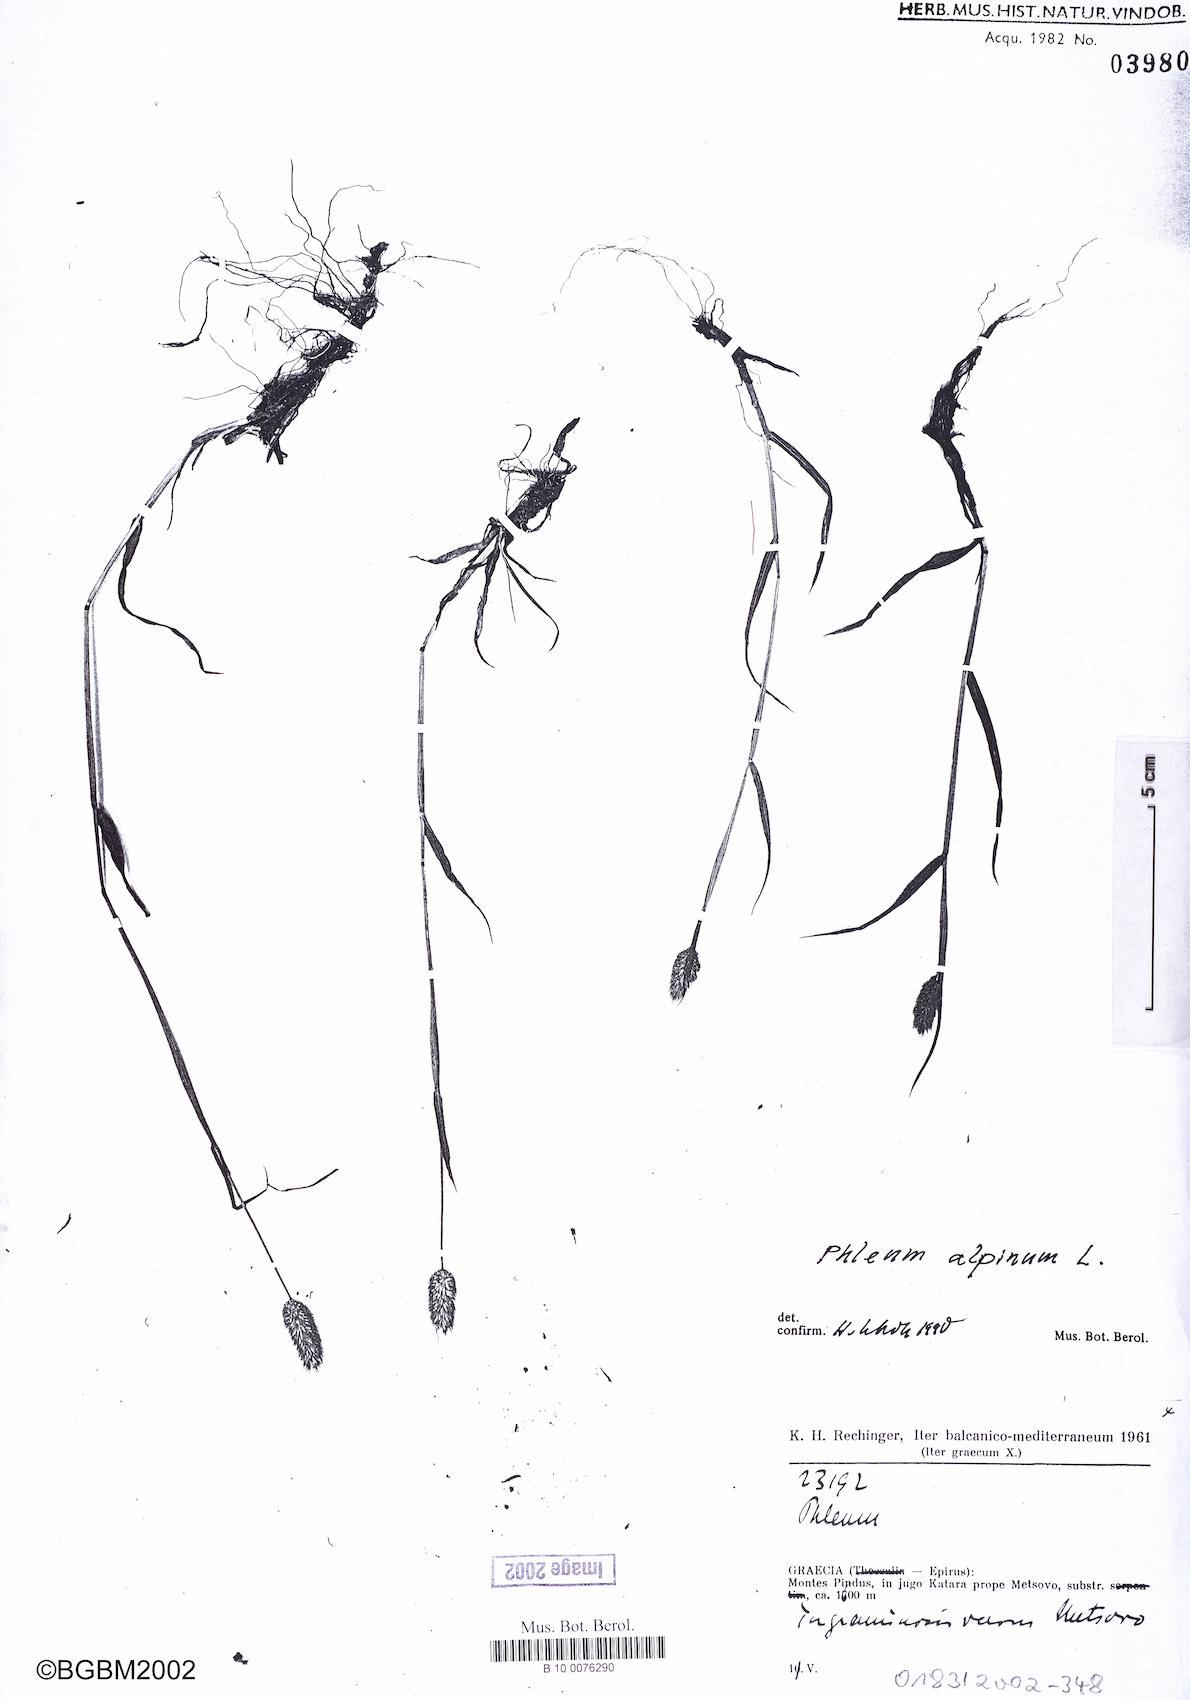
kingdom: Plantae
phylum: Tracheophyta
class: Liliopsida
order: Poales
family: Poaceae
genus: Phleum
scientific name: Phleum alpinum
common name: Alpine cat's-tail
